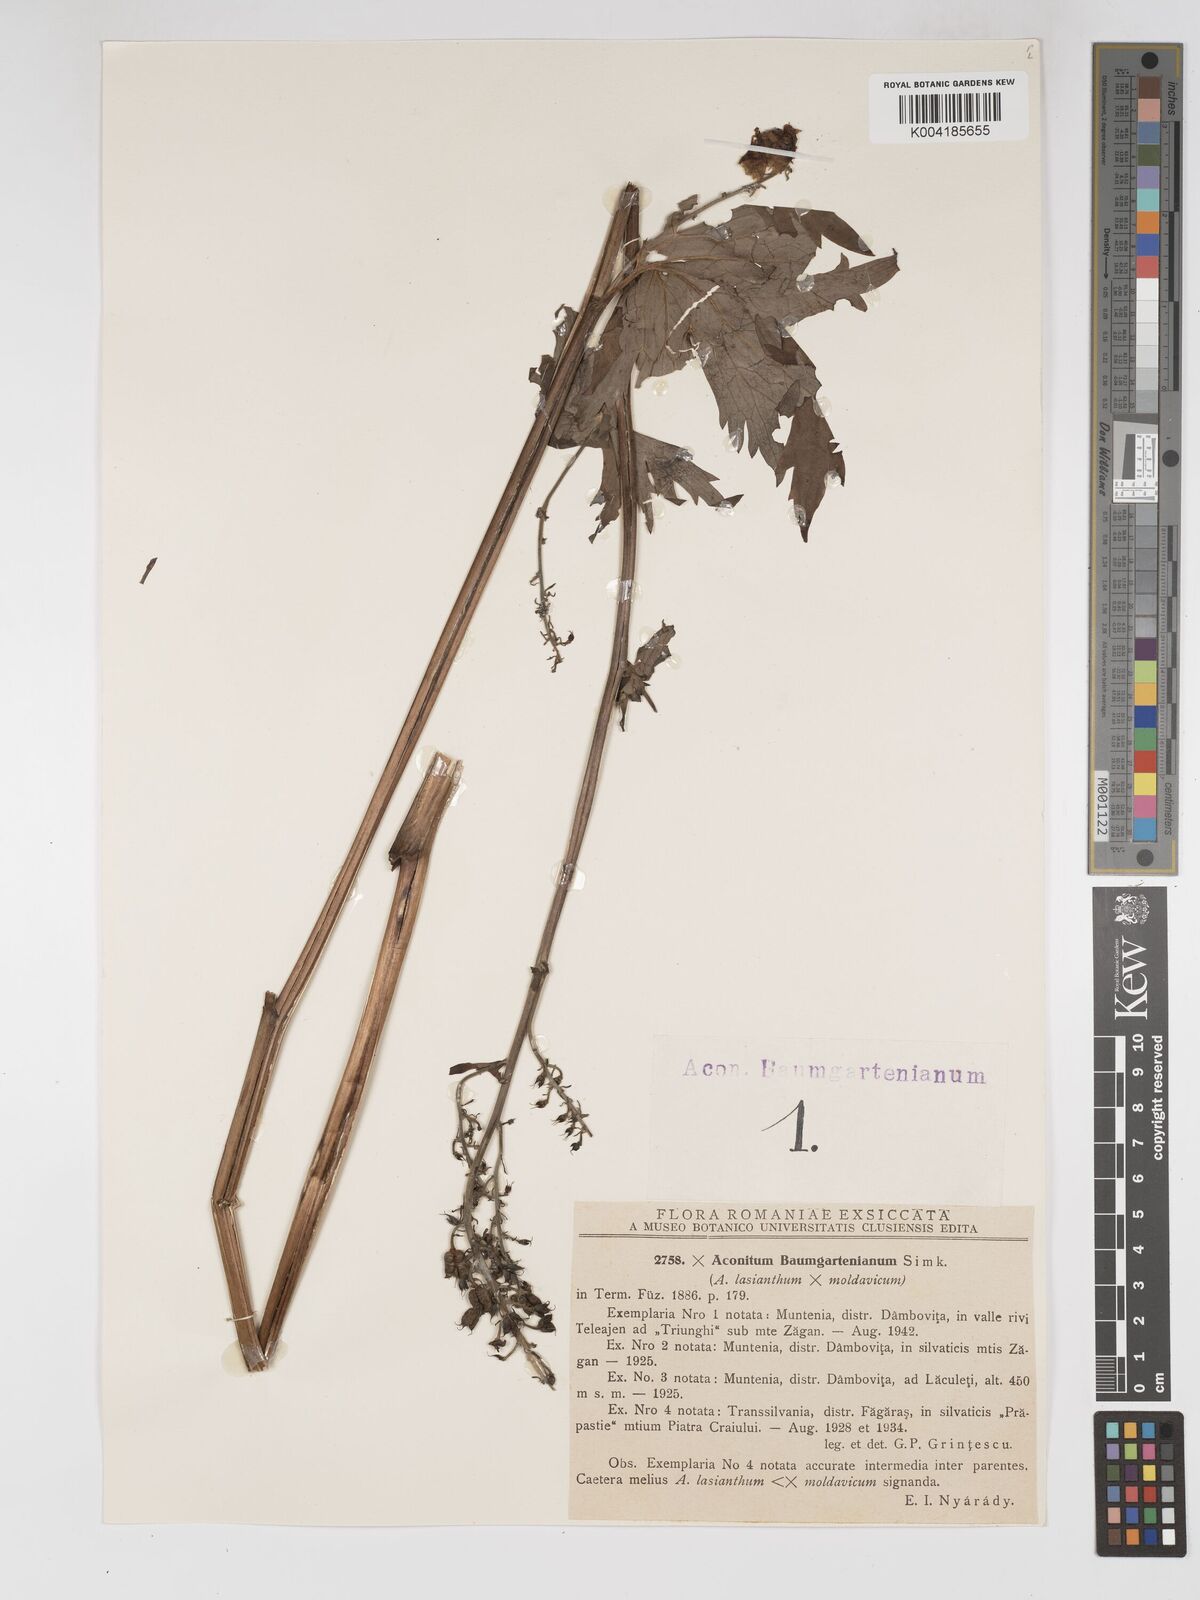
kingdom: Plantae
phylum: Tracheophyta
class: Magnoliopsida
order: Ranunculales
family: Ranunculaceae
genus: Aconitum
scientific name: Aconitum lycoctonum
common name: Wolf's-bane
